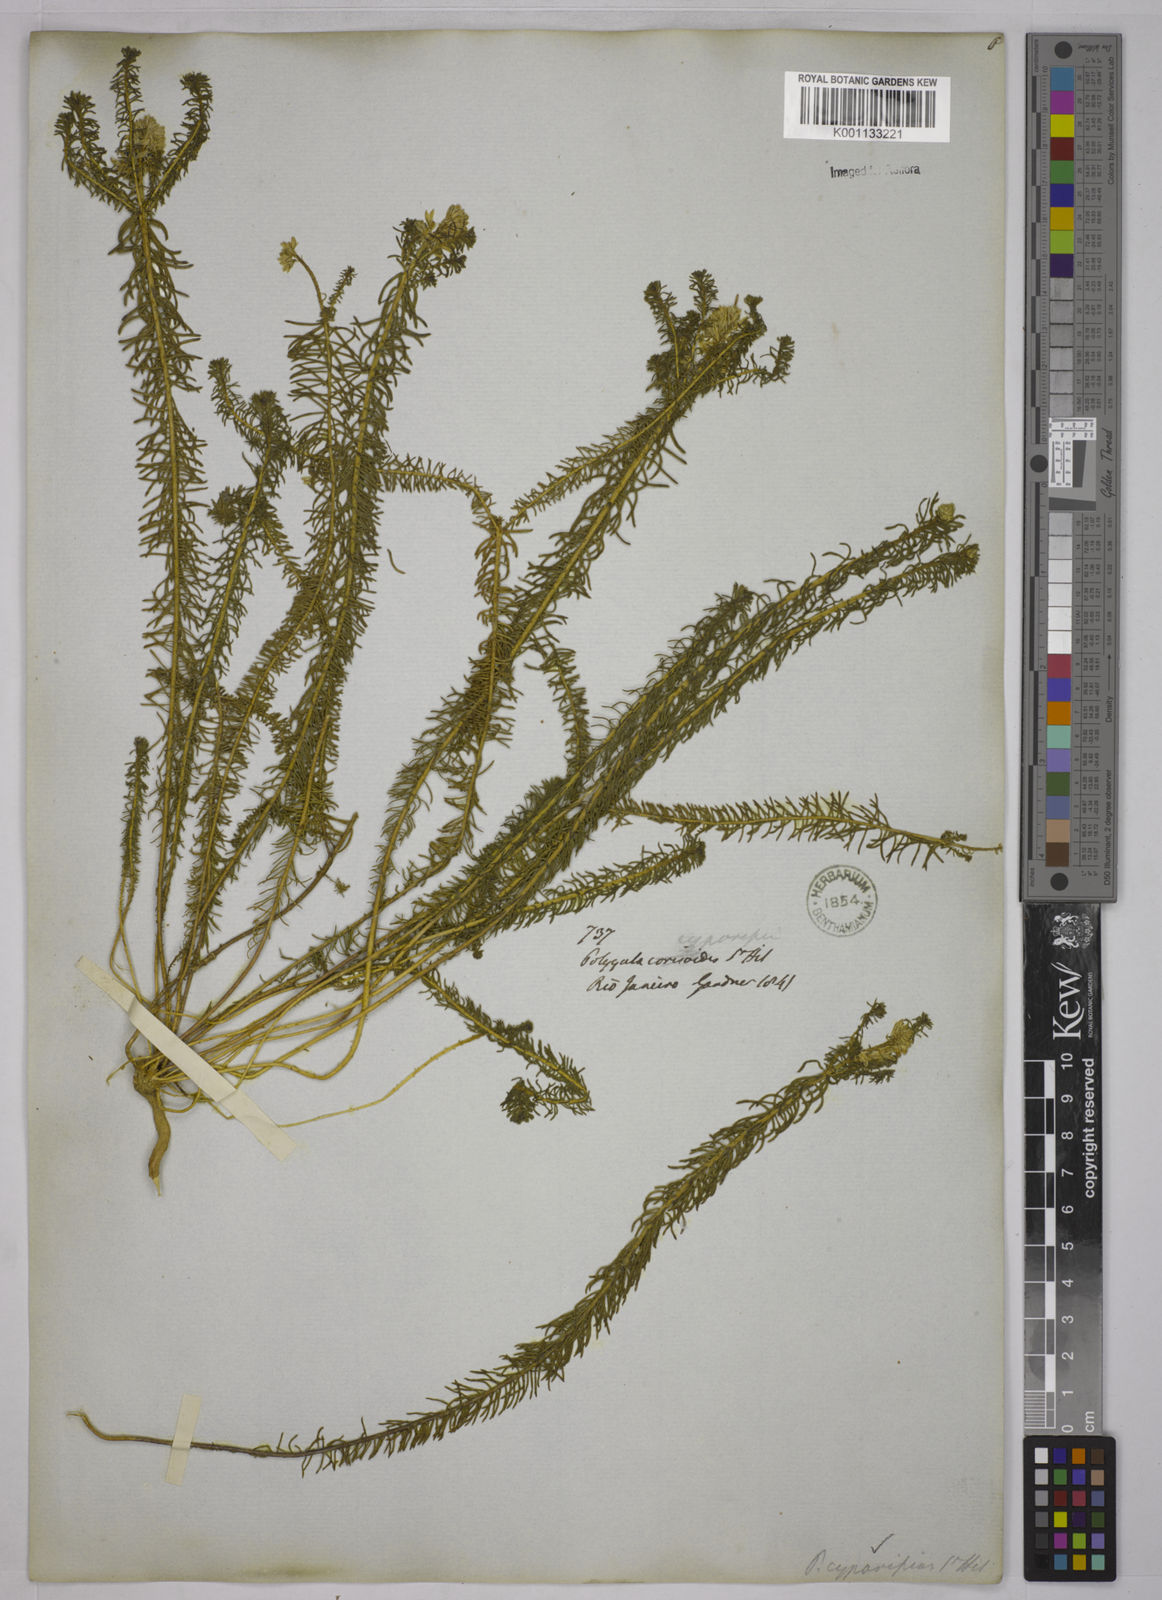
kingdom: Plantae
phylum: Tracheophyta
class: Magnoliopsida
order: Fabales
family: Polygalaceae
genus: Polygala
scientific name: Polygala cyparissias
